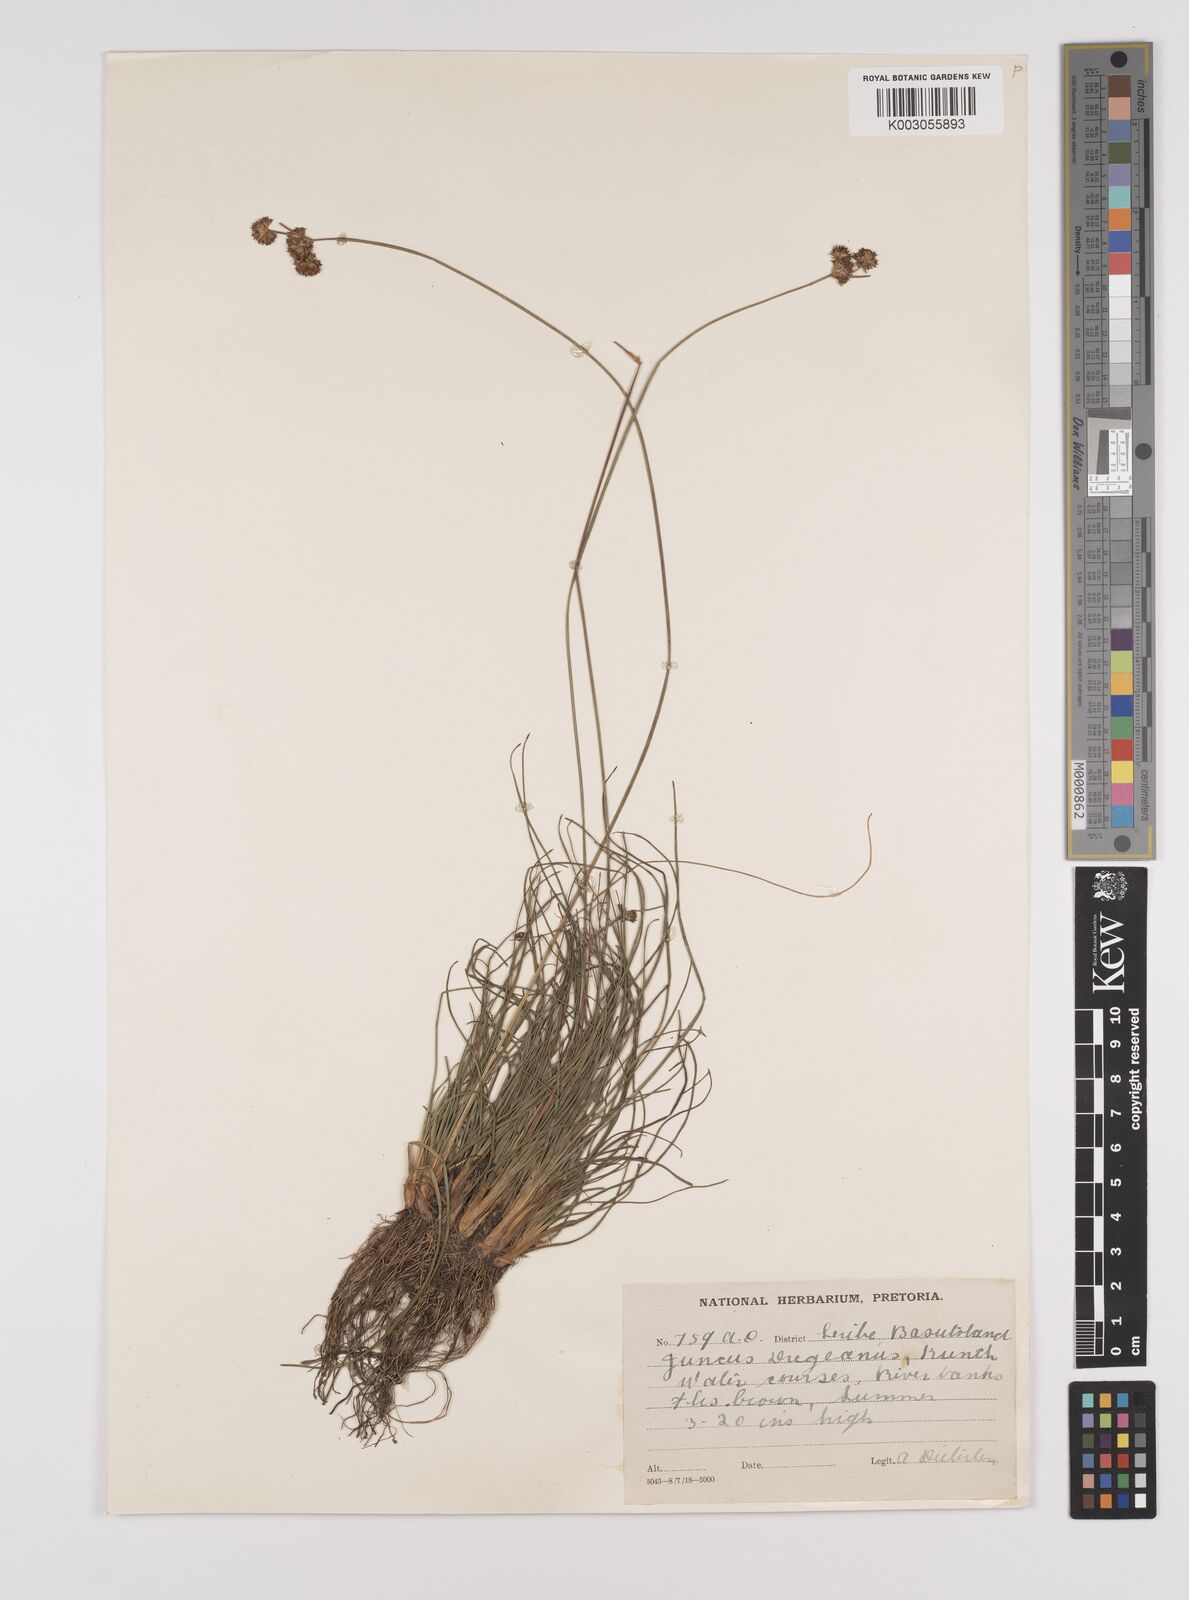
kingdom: Plantae
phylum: Tracheophyta
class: Liliopsida
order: Poales
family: Juncaceae
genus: Juncus
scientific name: Juncus dregeanus
